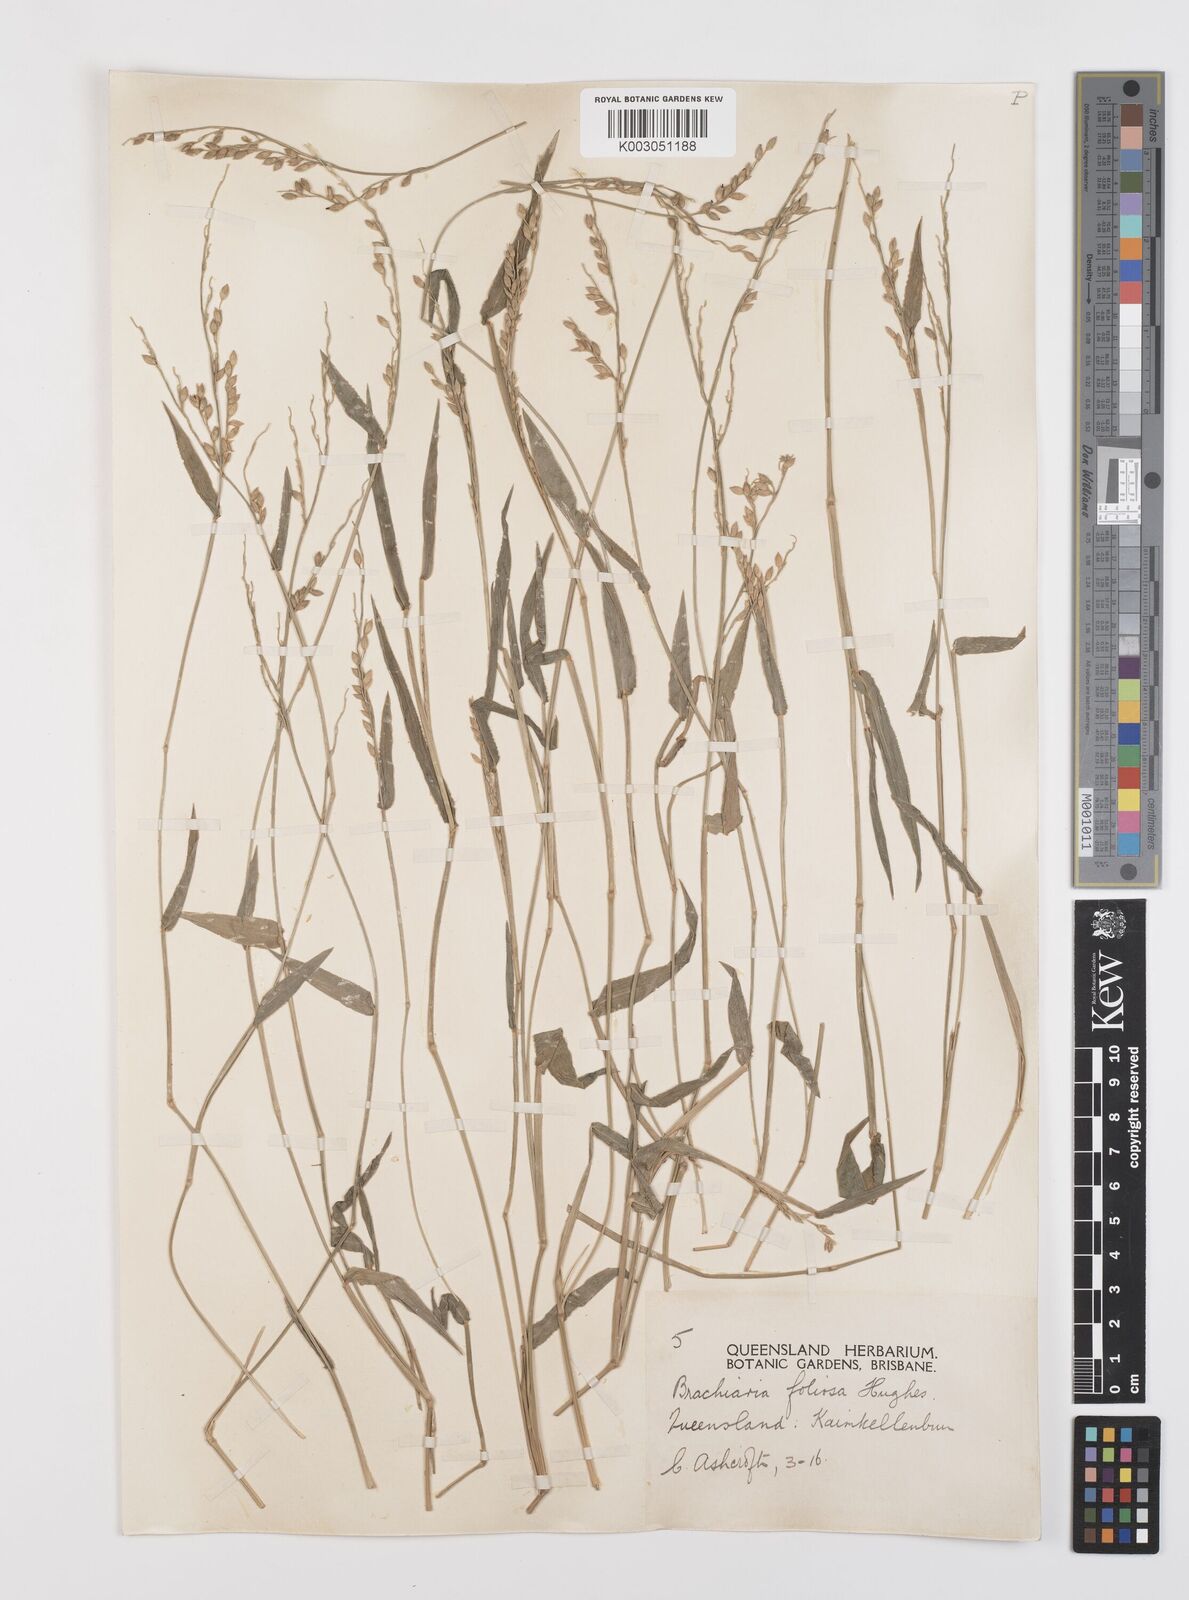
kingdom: Plantae
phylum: Tracheophyta
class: Liliopsida
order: Poales
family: Poaceae
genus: Urochloa
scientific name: Urochloa foliosa
